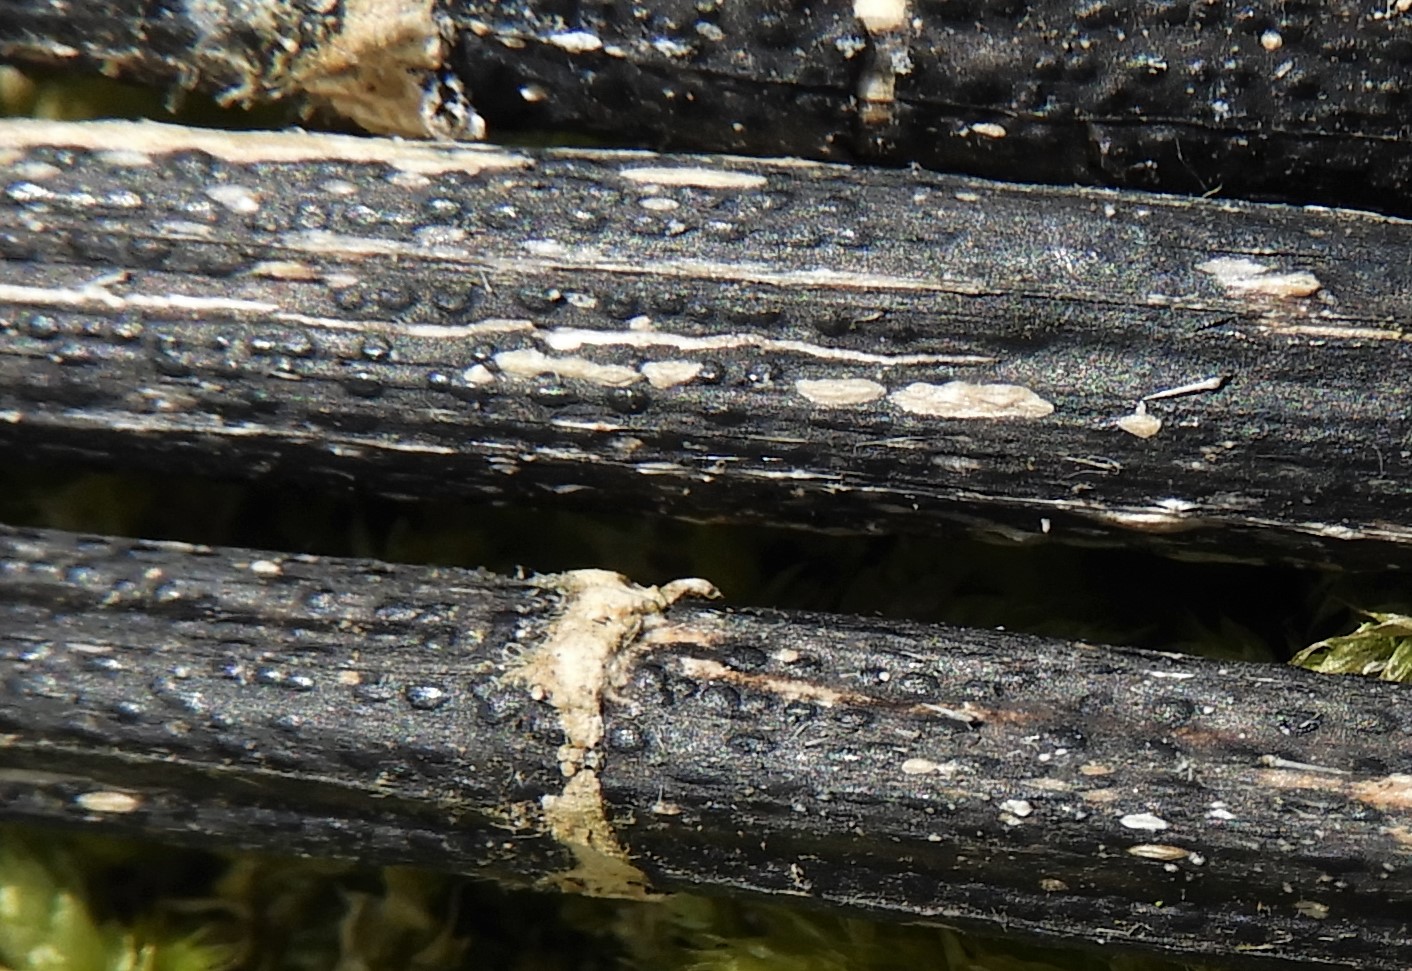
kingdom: Fungi
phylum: Ascomycota
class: Sordariomycetes
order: Diaporthales
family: Diaporthaceae
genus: Diaporthopsis
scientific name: Diaporthopsis urticae
